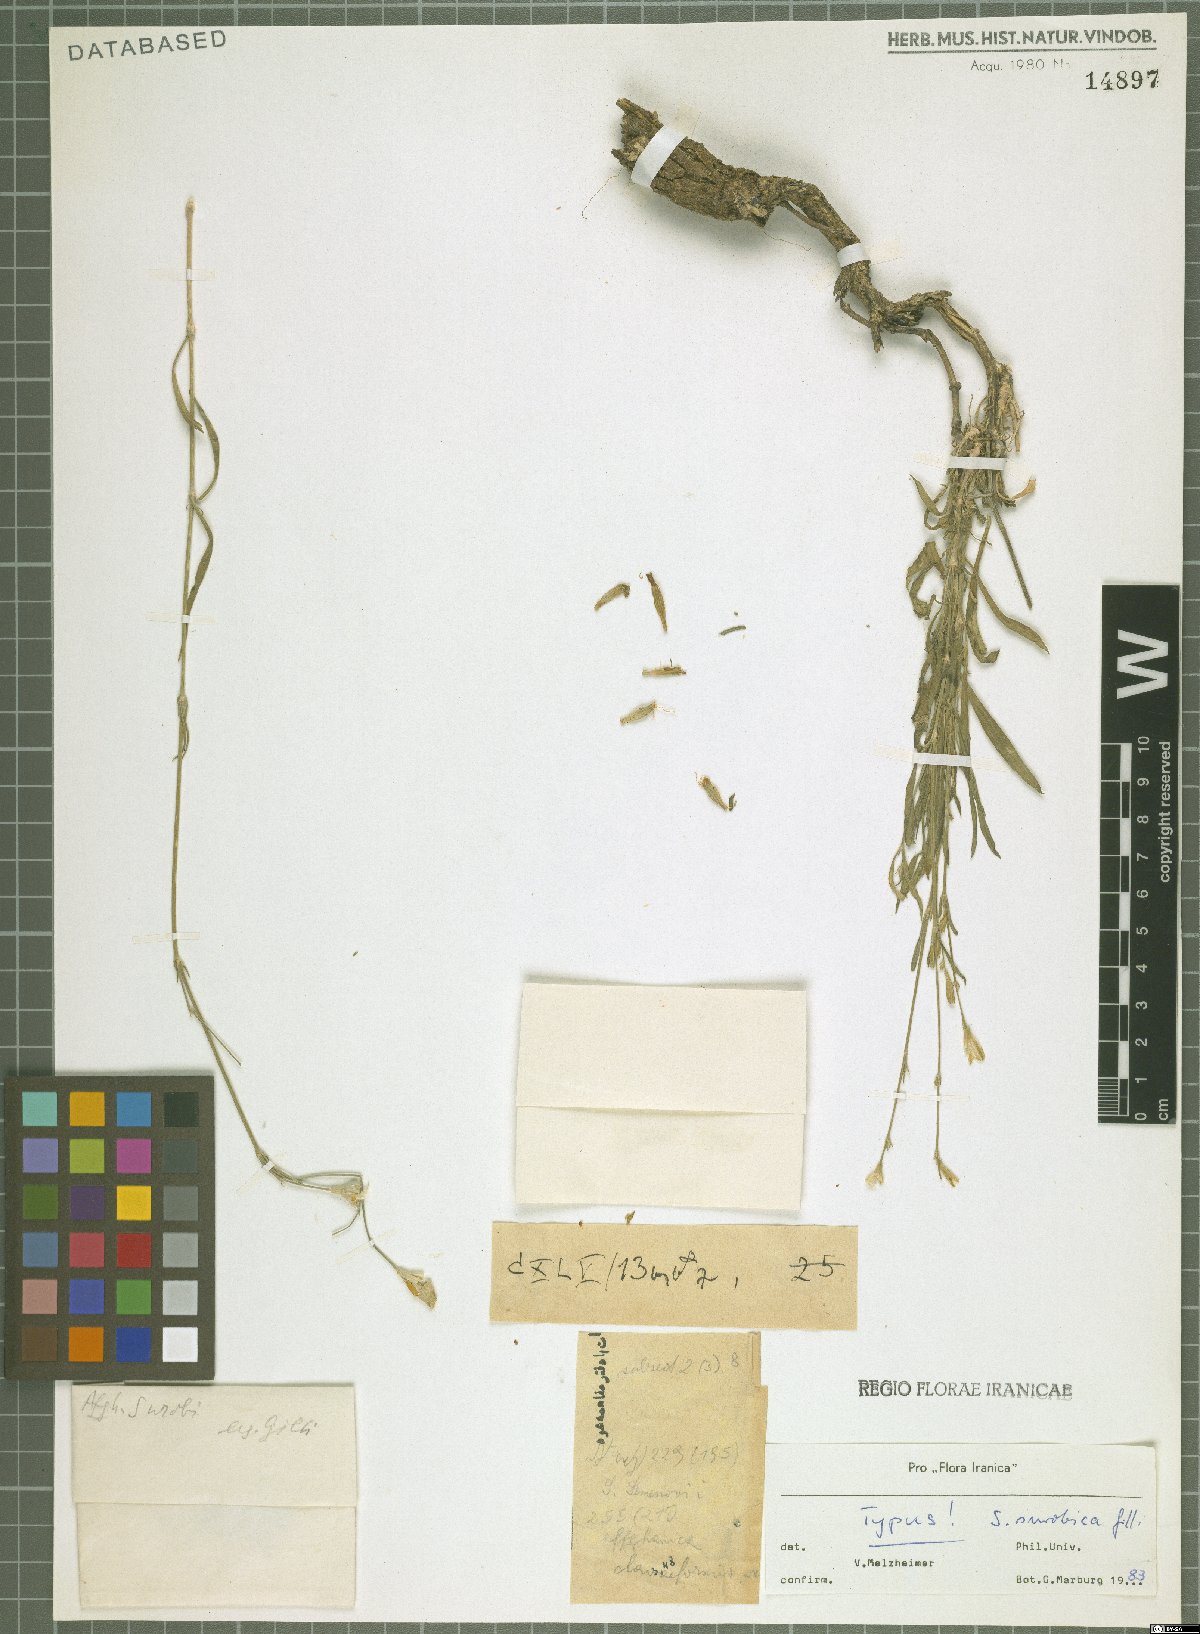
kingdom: Plantae
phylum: Tracheophyta
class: Magnoliopsida
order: Caryophyllales
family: Caryophyllaceae
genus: Silene
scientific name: Silene surobica
